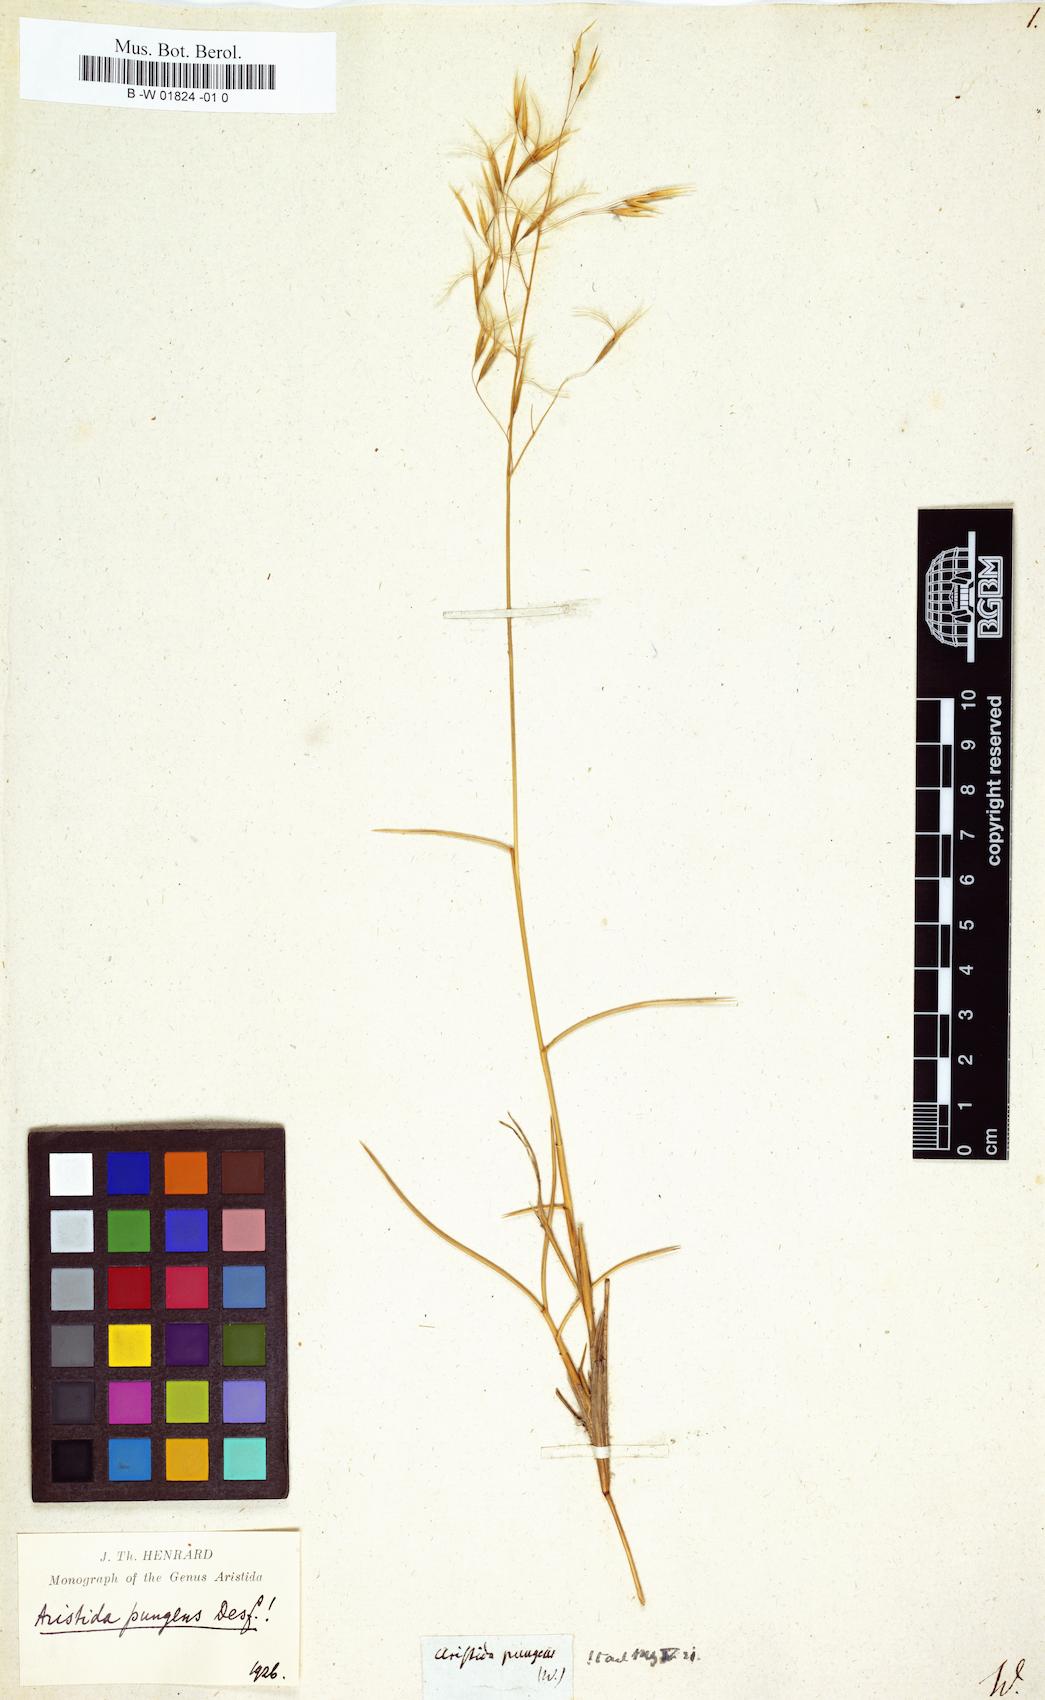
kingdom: Plantae
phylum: Tracheophyta
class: Liliopsida
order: Poales
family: Poaceae
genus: Aristida
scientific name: Aristida pungens
